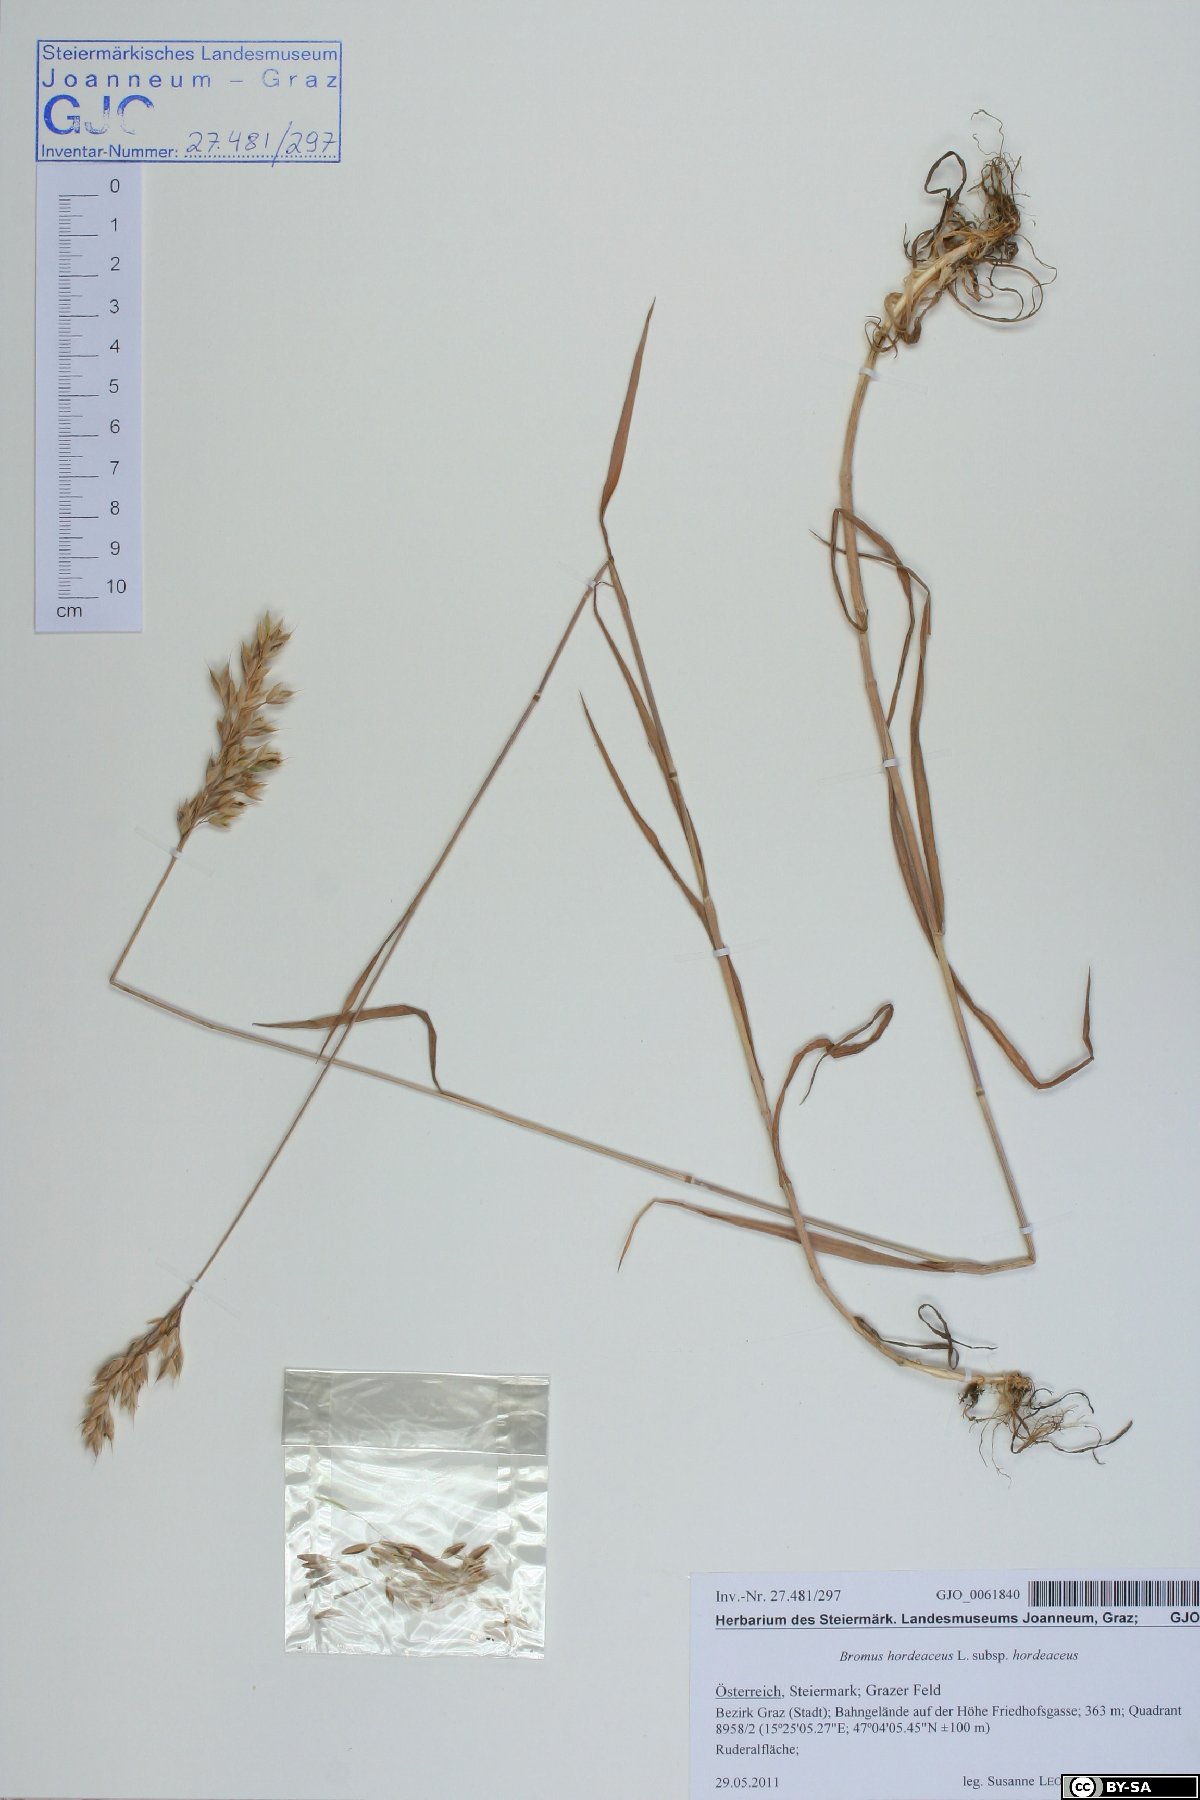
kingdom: Plantae
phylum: Tracheophyta
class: Liliopsida
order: Poales
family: Poaceae
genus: Bromus
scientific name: Bromus hordeaceus
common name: Soft brome
